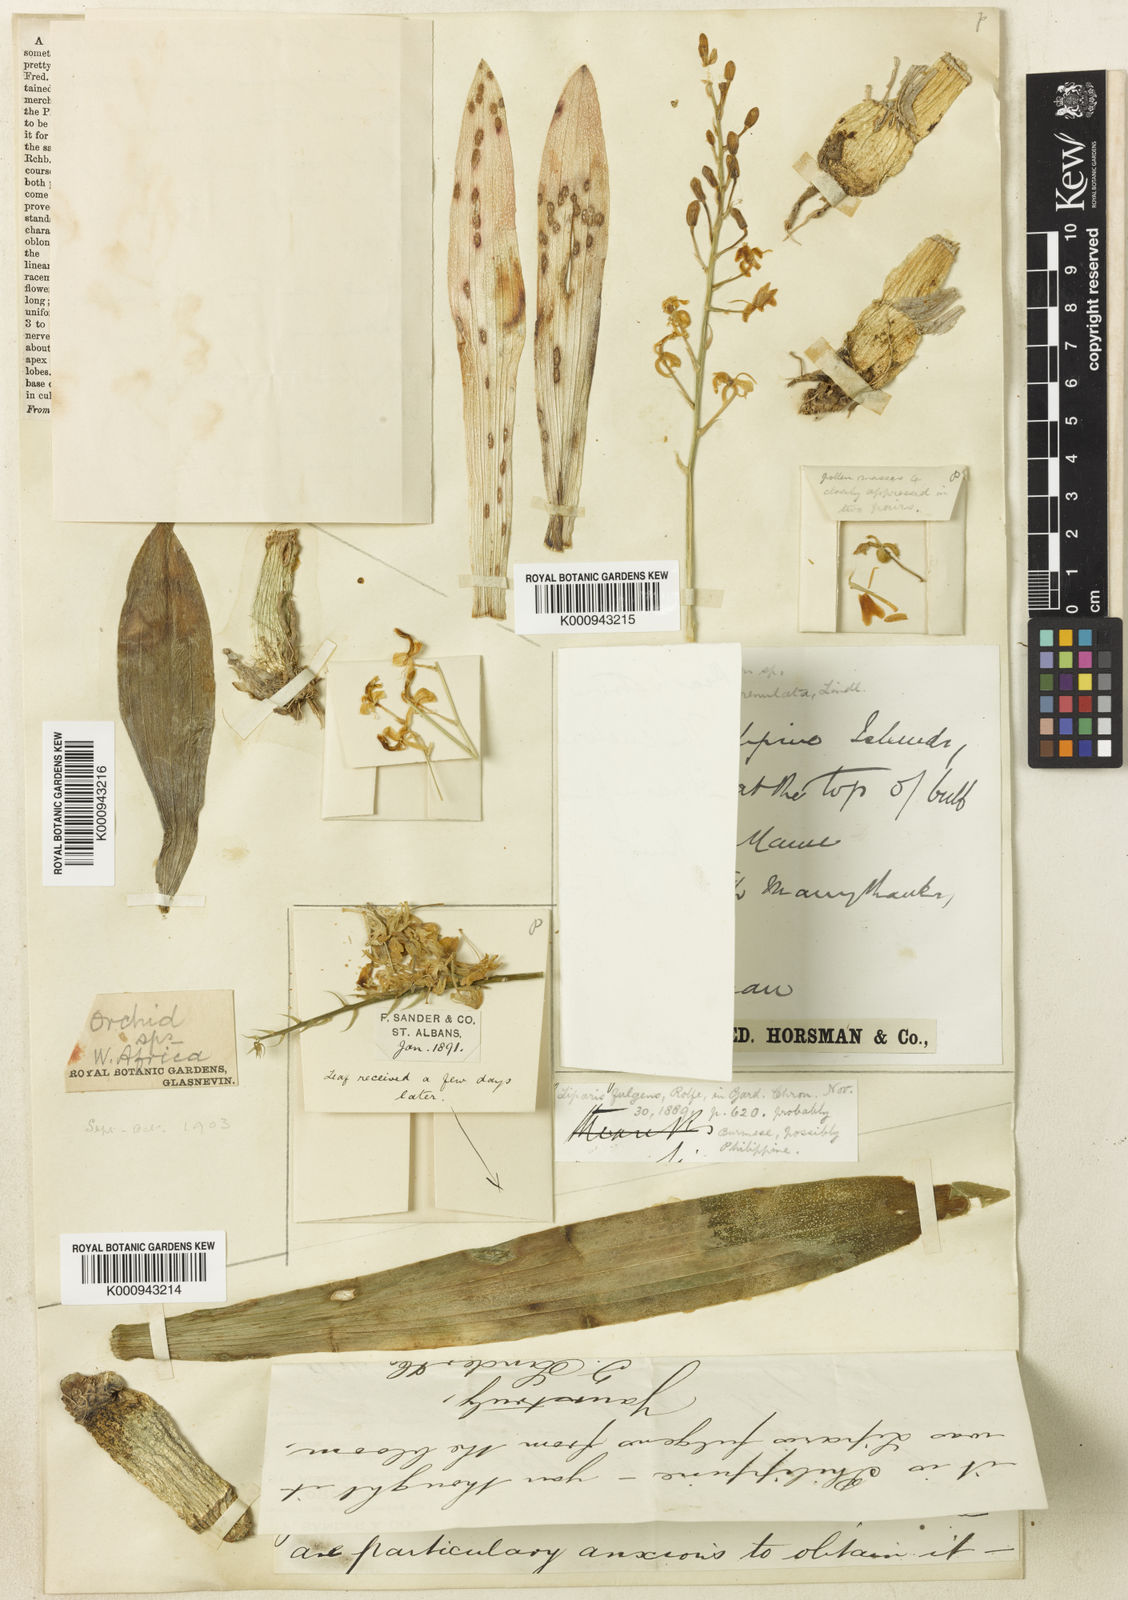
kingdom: Plantae
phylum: Tracheophyta
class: Liliopsida
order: Asparagales
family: Orchidaceae
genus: Liparis
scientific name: Liparis latifolia
